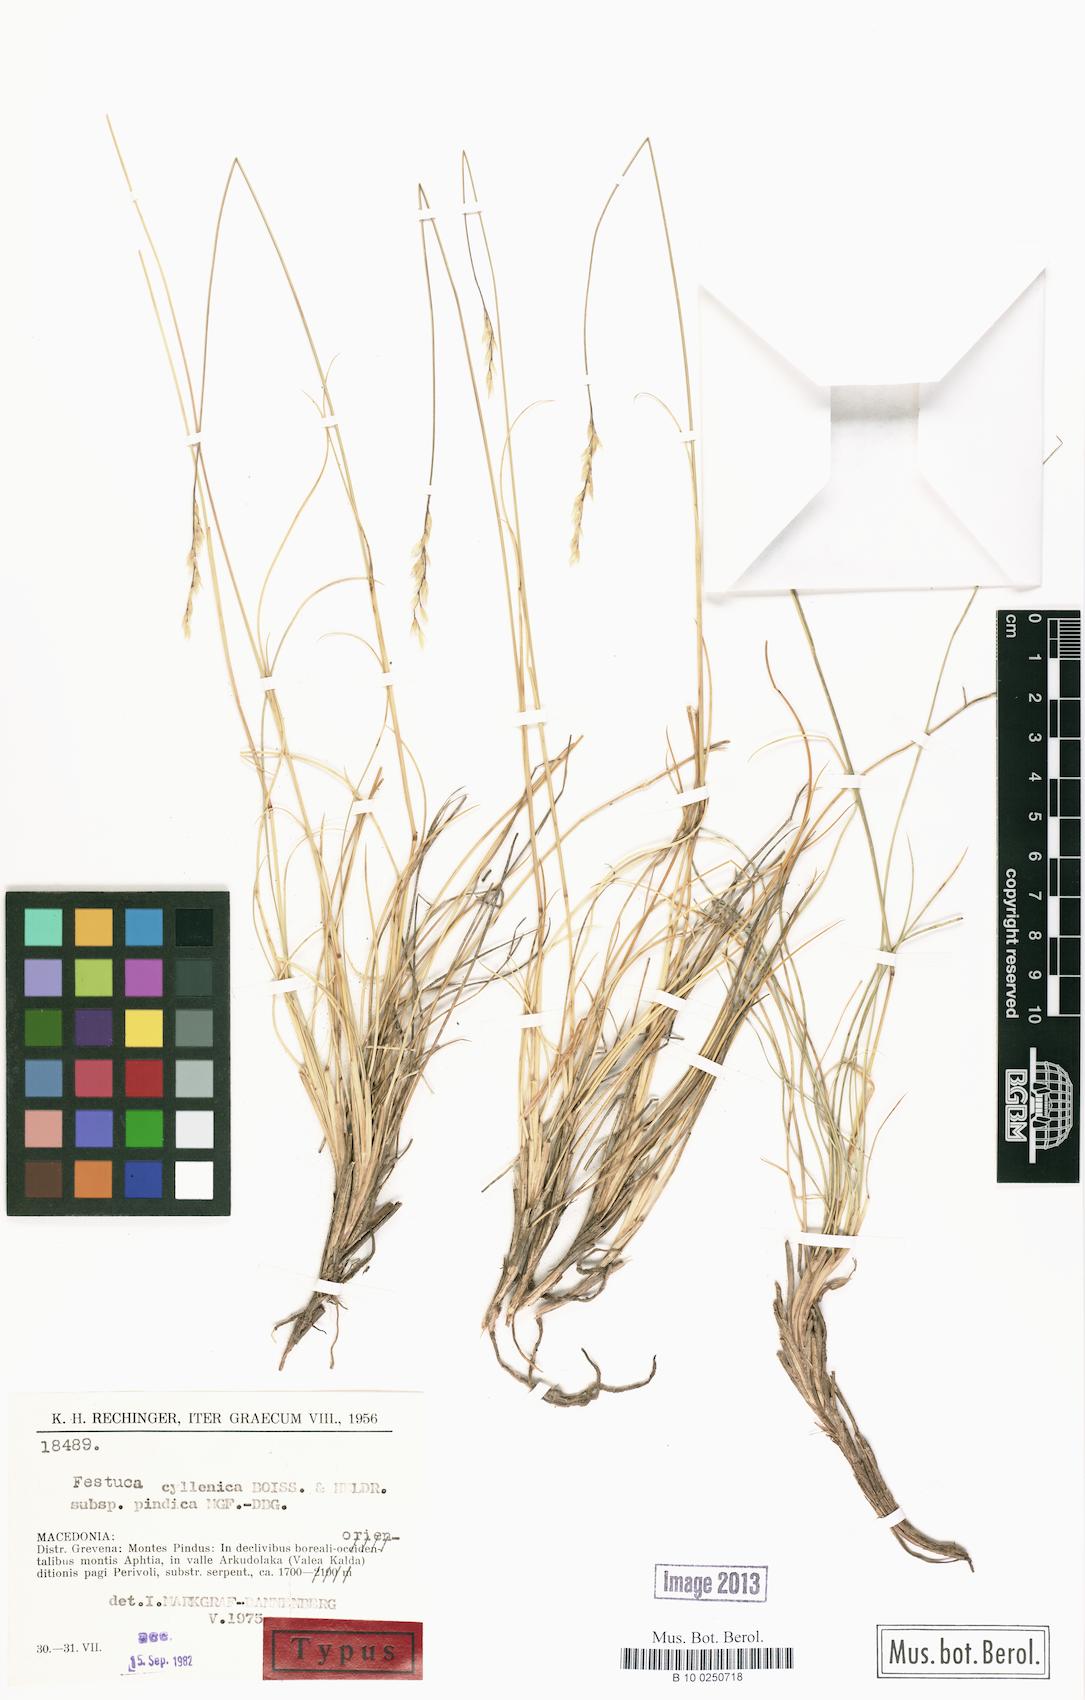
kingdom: Plantae
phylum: Tracheophyta
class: Liliopsida
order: Poales
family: Poaceae
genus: Festuca
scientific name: Festuca pindica
